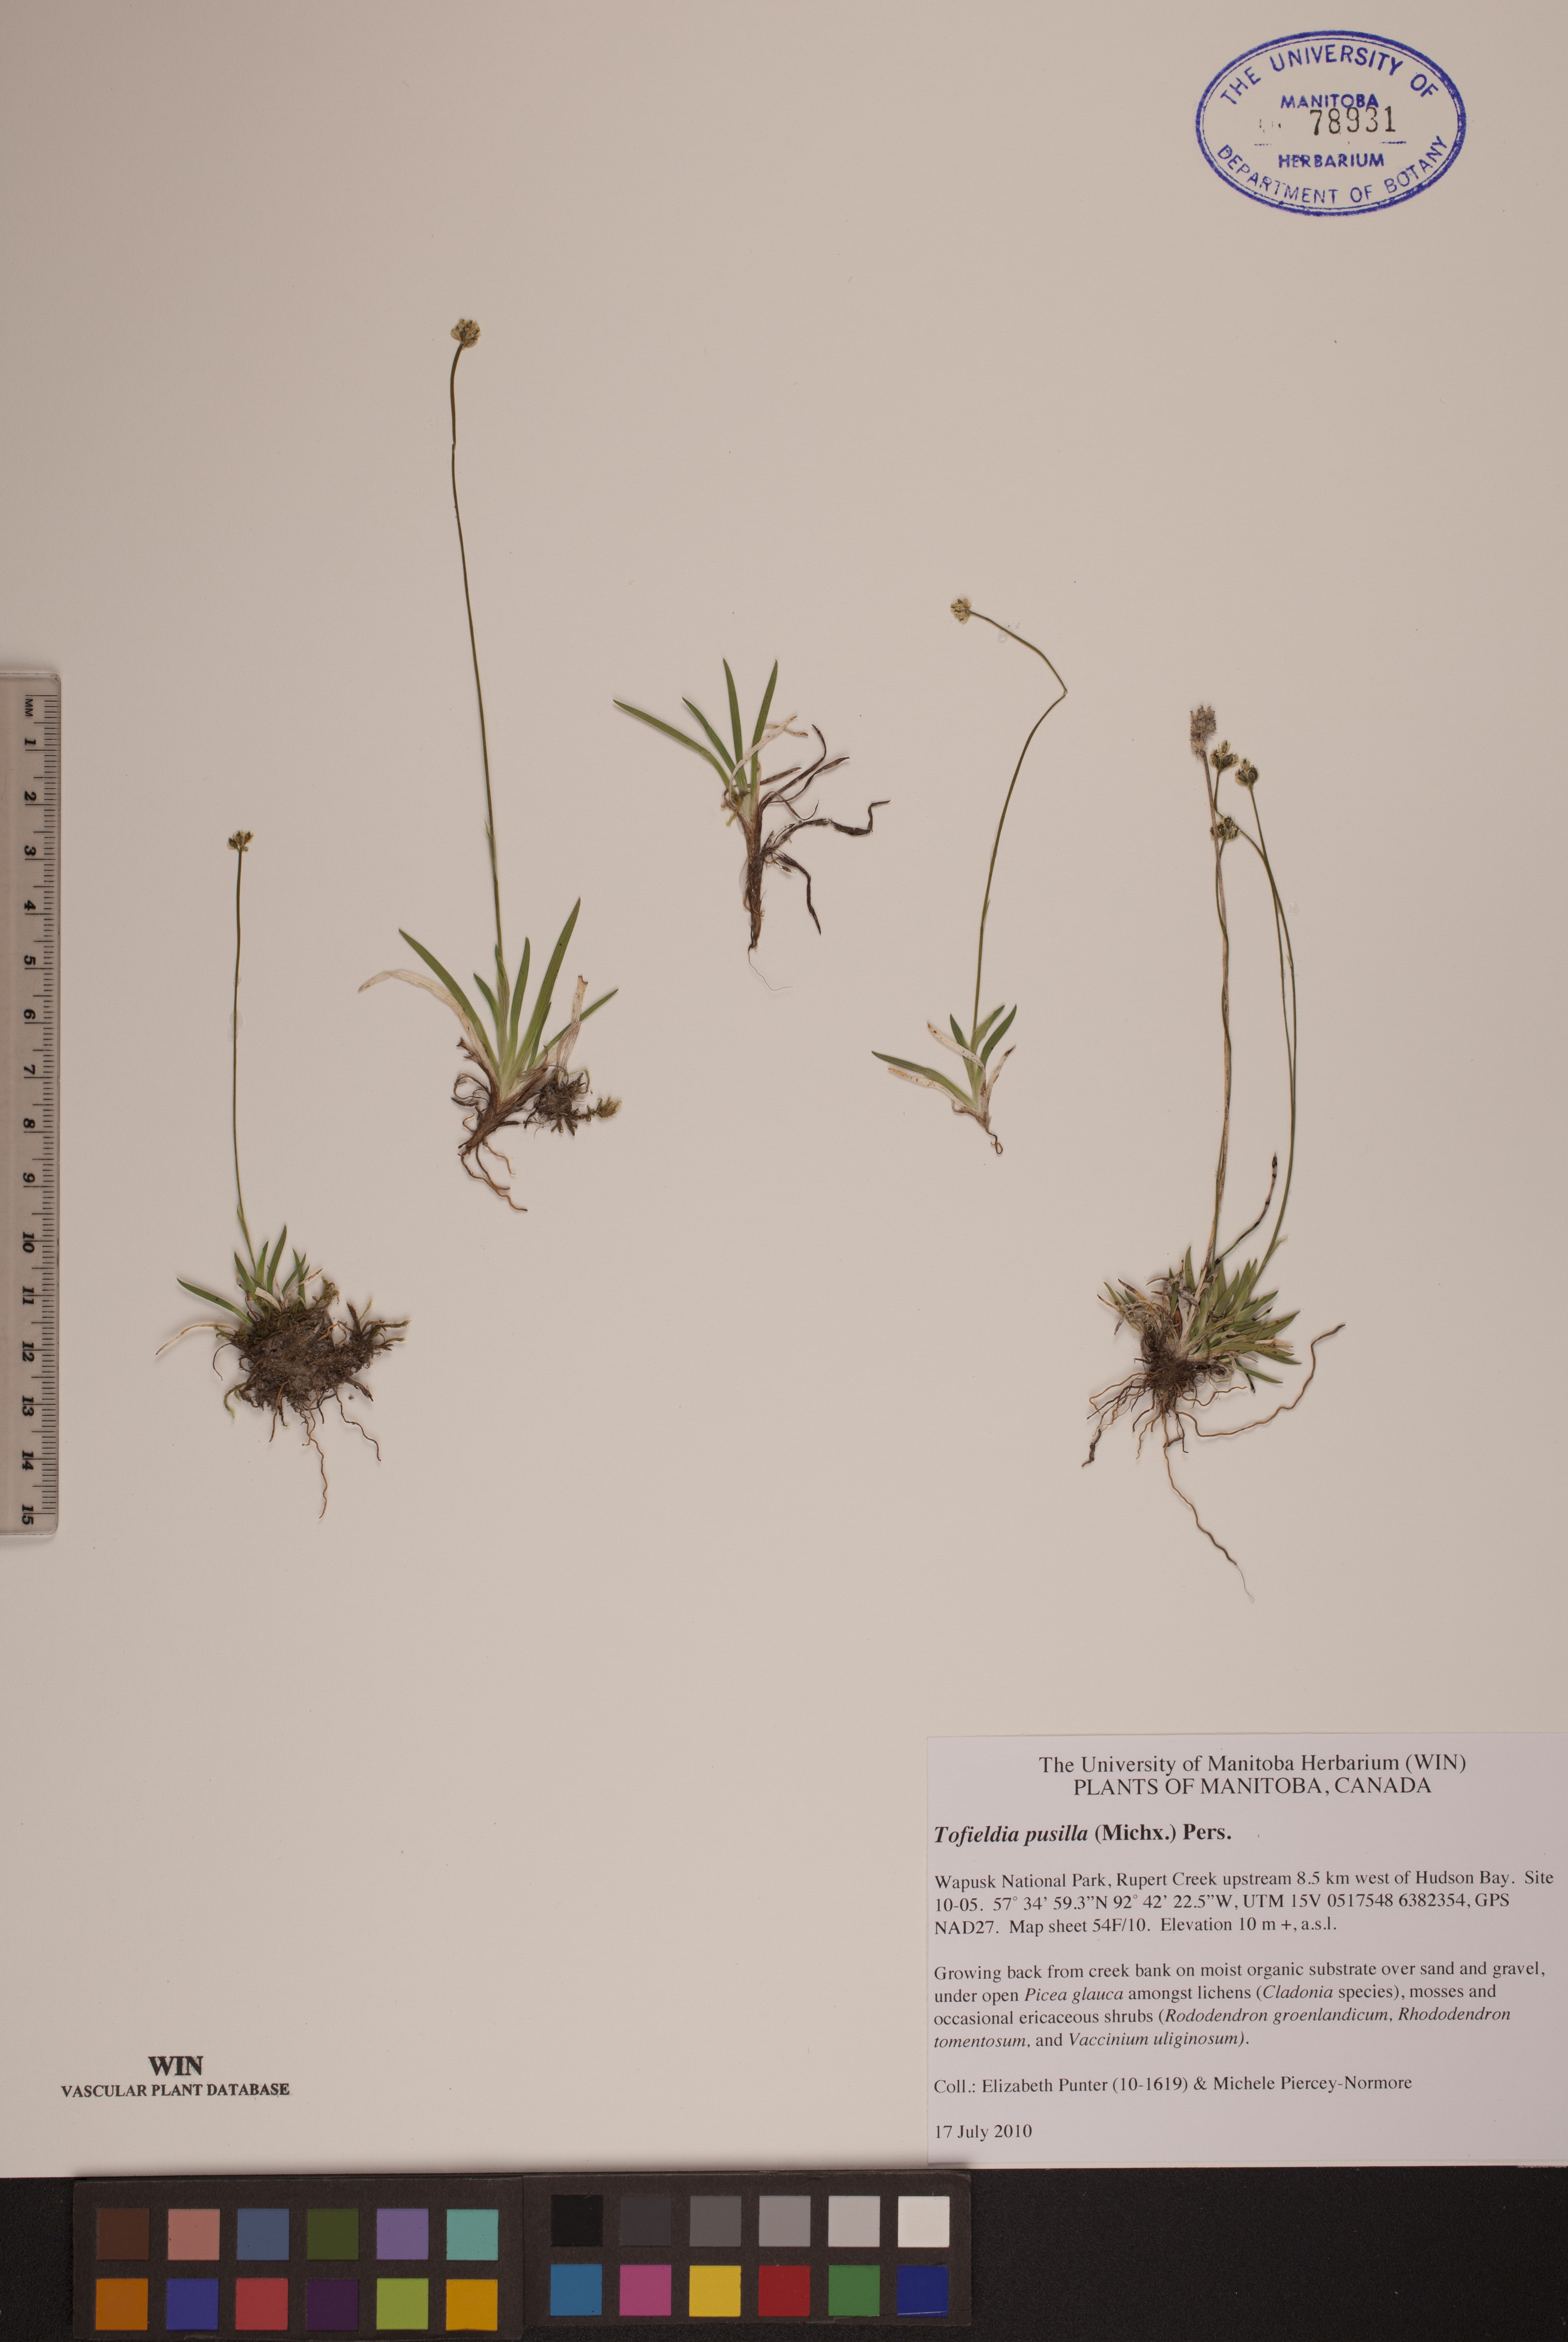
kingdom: Plantae
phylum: Tracheophyta
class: Liliopsida
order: Alismatales
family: Tofieldiaceae
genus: Tofieldia
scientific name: Tofieldia pusilla
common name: Scottish false asphodel
